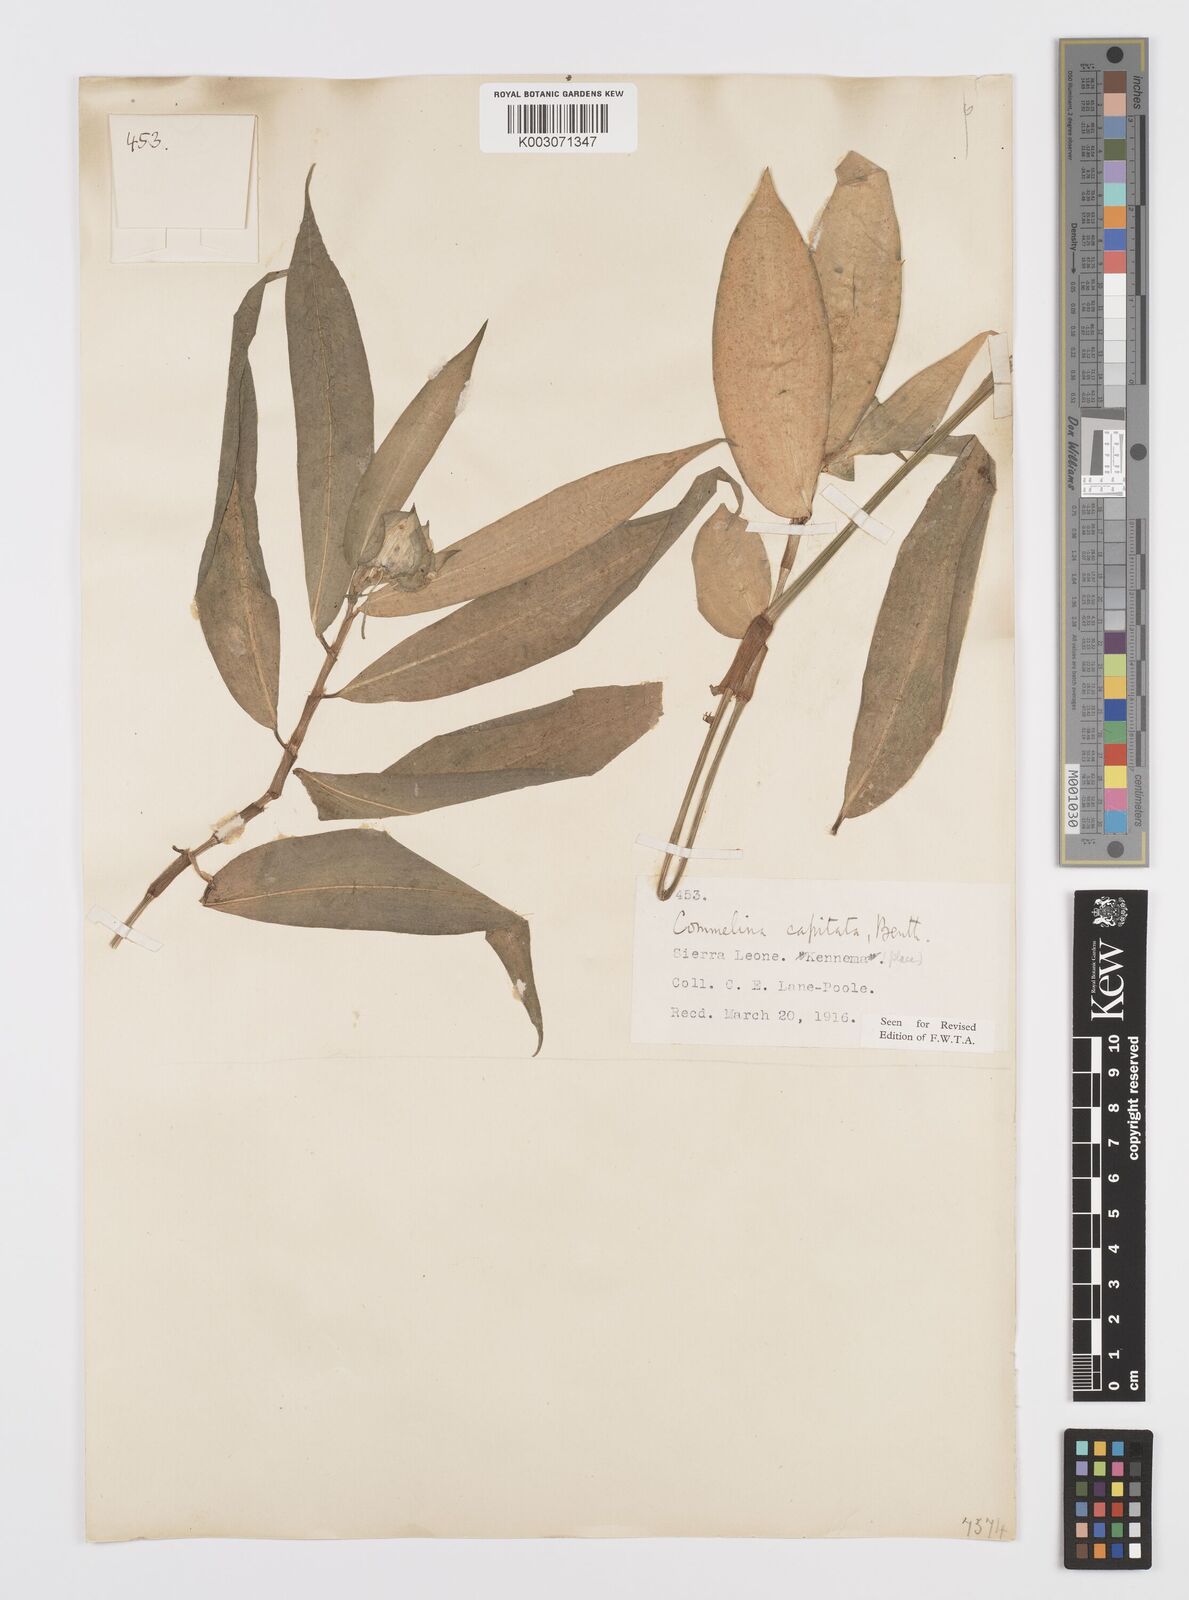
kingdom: Plantae
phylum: Tracheophyta
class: Liliopsida
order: Commelinales
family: Commelinaceae
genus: Commelina
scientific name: Commelina capitata
